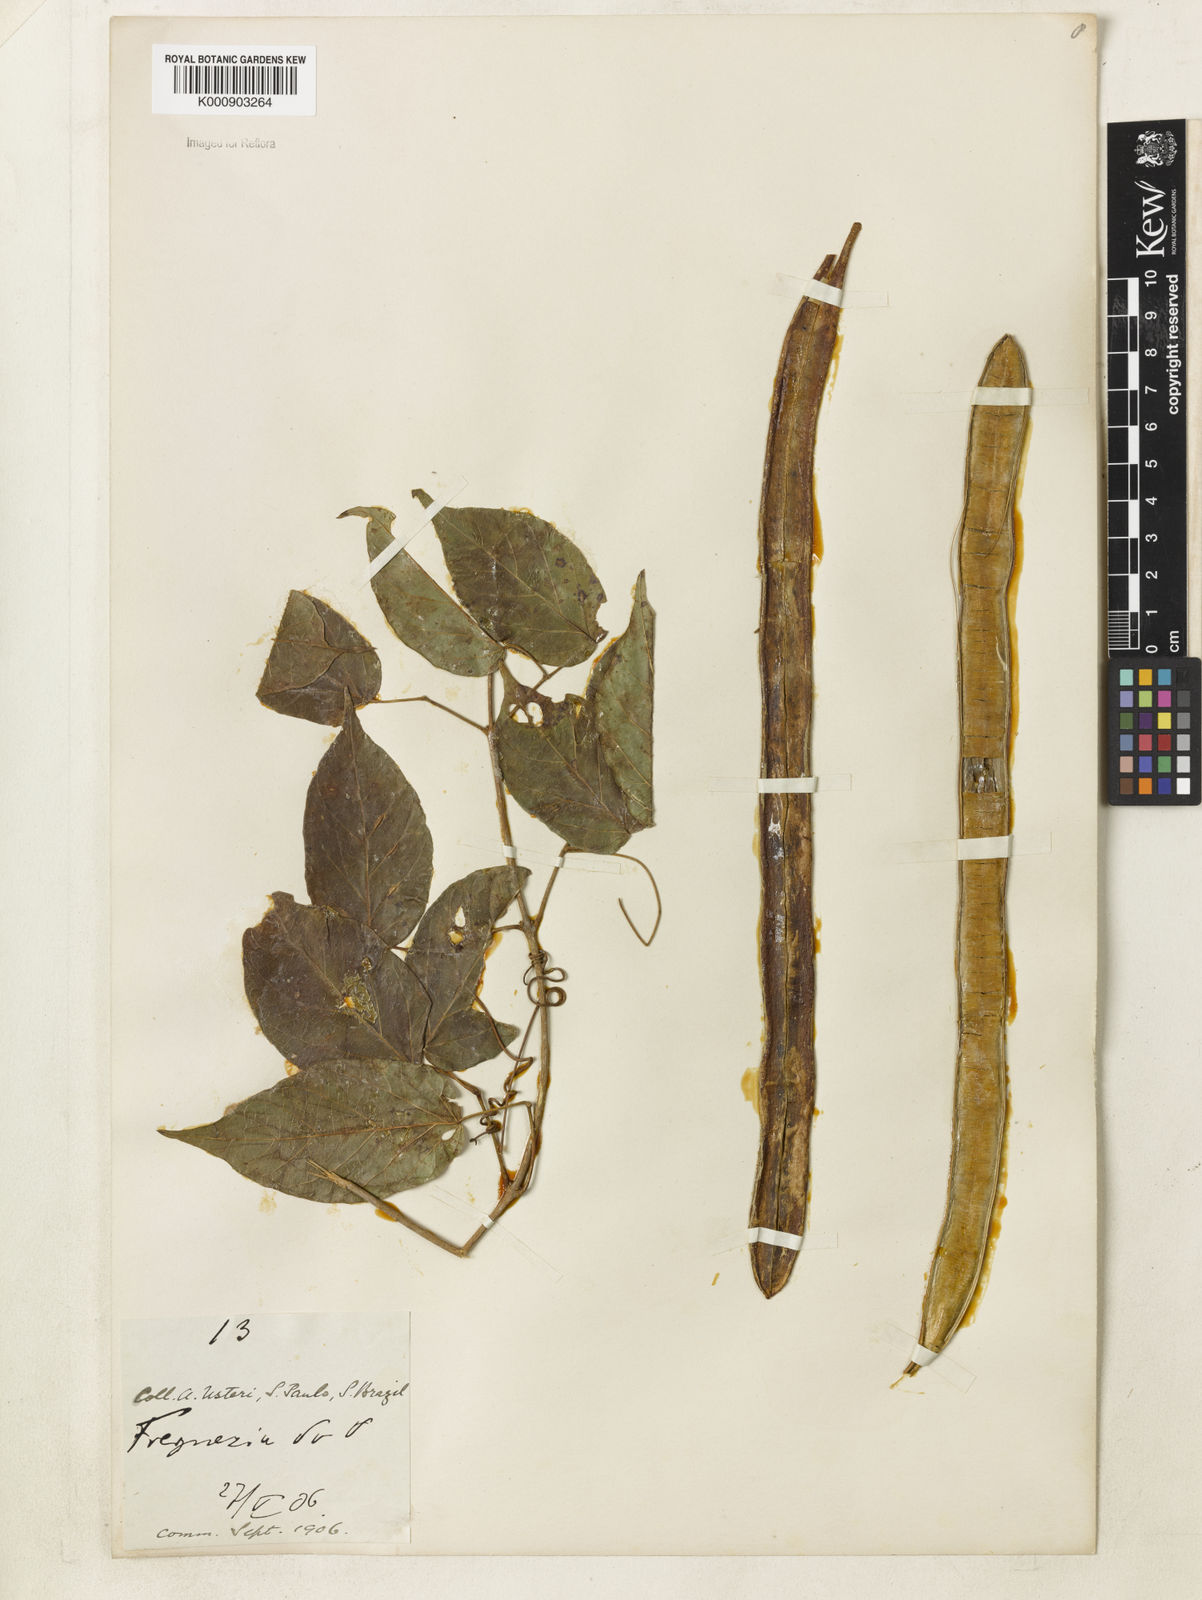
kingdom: Plantae
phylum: Tracheophyta
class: Magnoliopsida
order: Lamiales
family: Bignoniaceae
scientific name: Bignoniaceae
